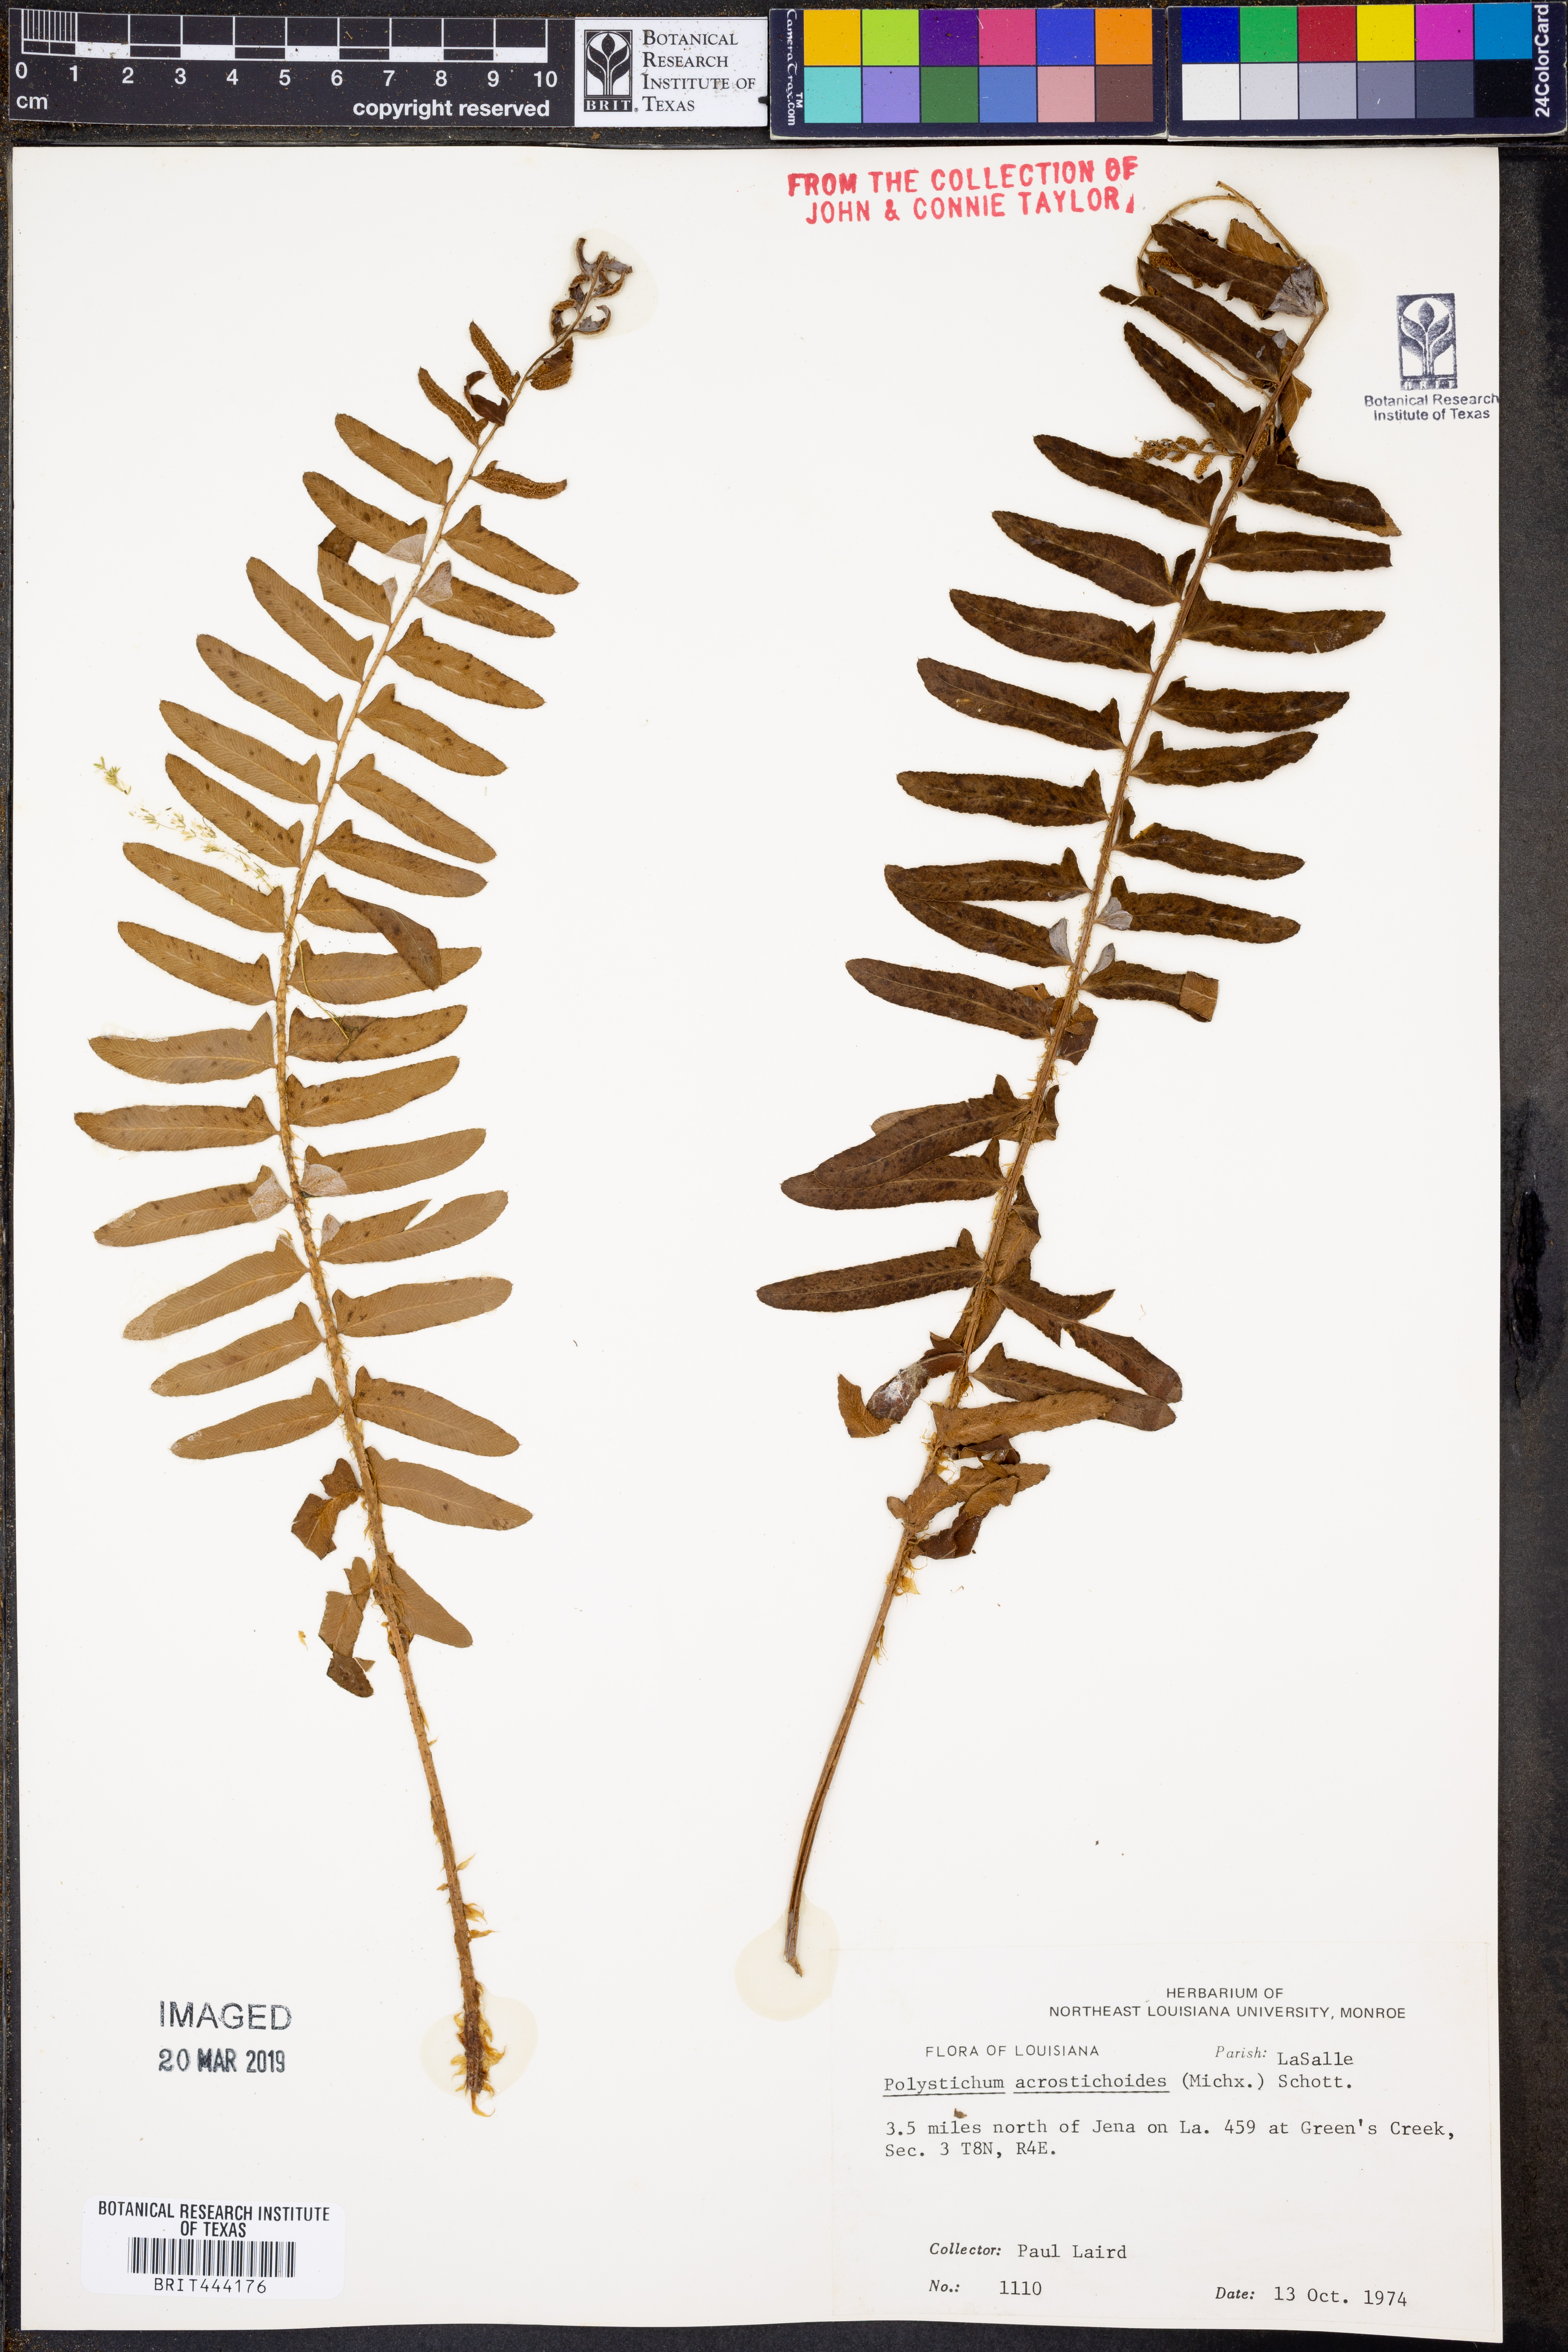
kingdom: Plantae
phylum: Tracheophyta
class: Polypodiopsida
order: Polypodiales
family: Dryopteridaceae
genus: Polystichum
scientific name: Polystichum acrostichoides
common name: Christmas fern
